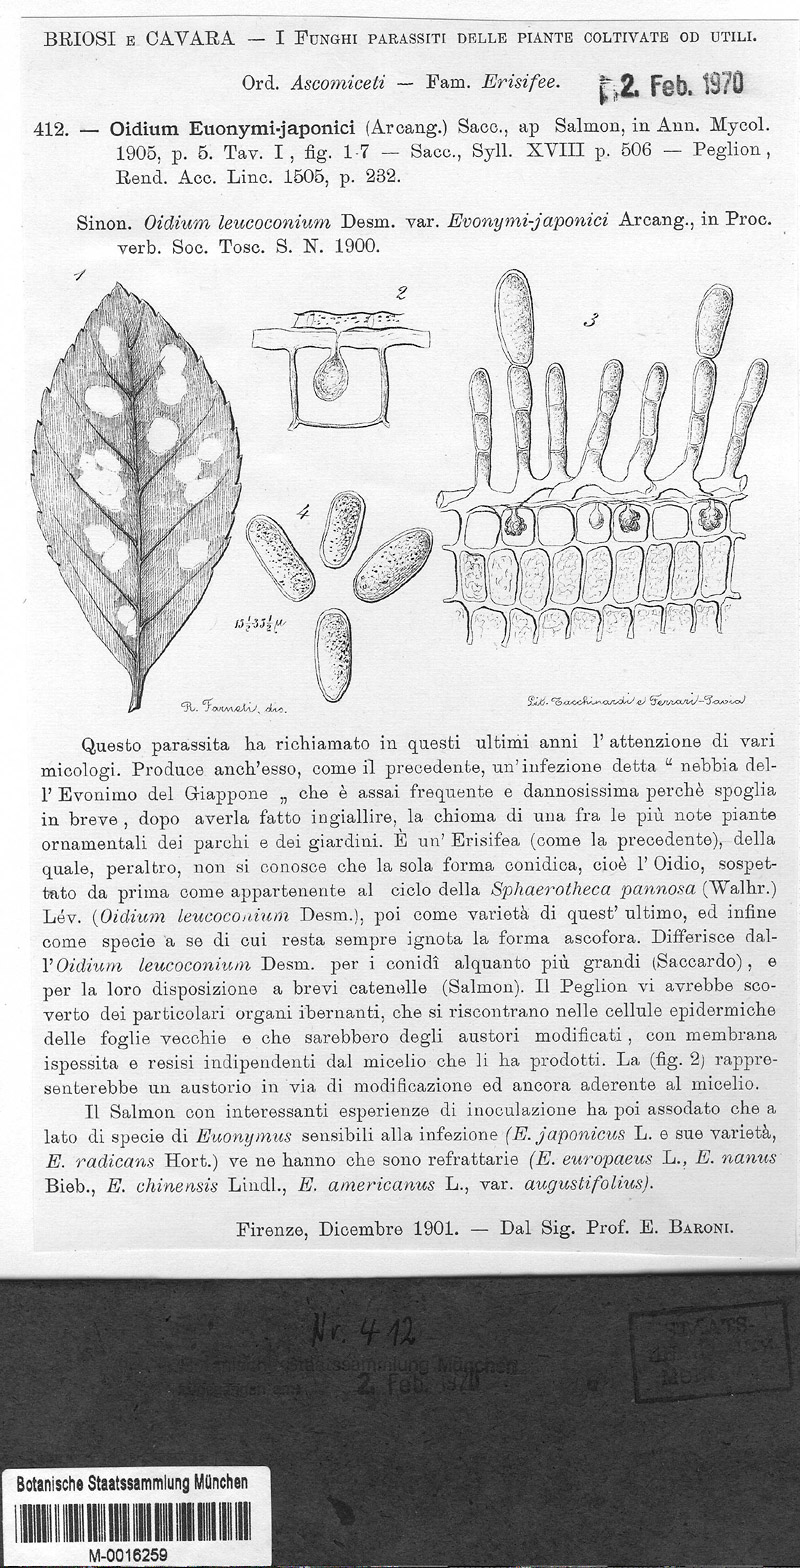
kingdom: Fungi
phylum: Ascomycota
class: Leotiomycetes
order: Helotiales
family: Erysiphaceae
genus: Erysiphe
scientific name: Erysiphe euonymi-japonici
